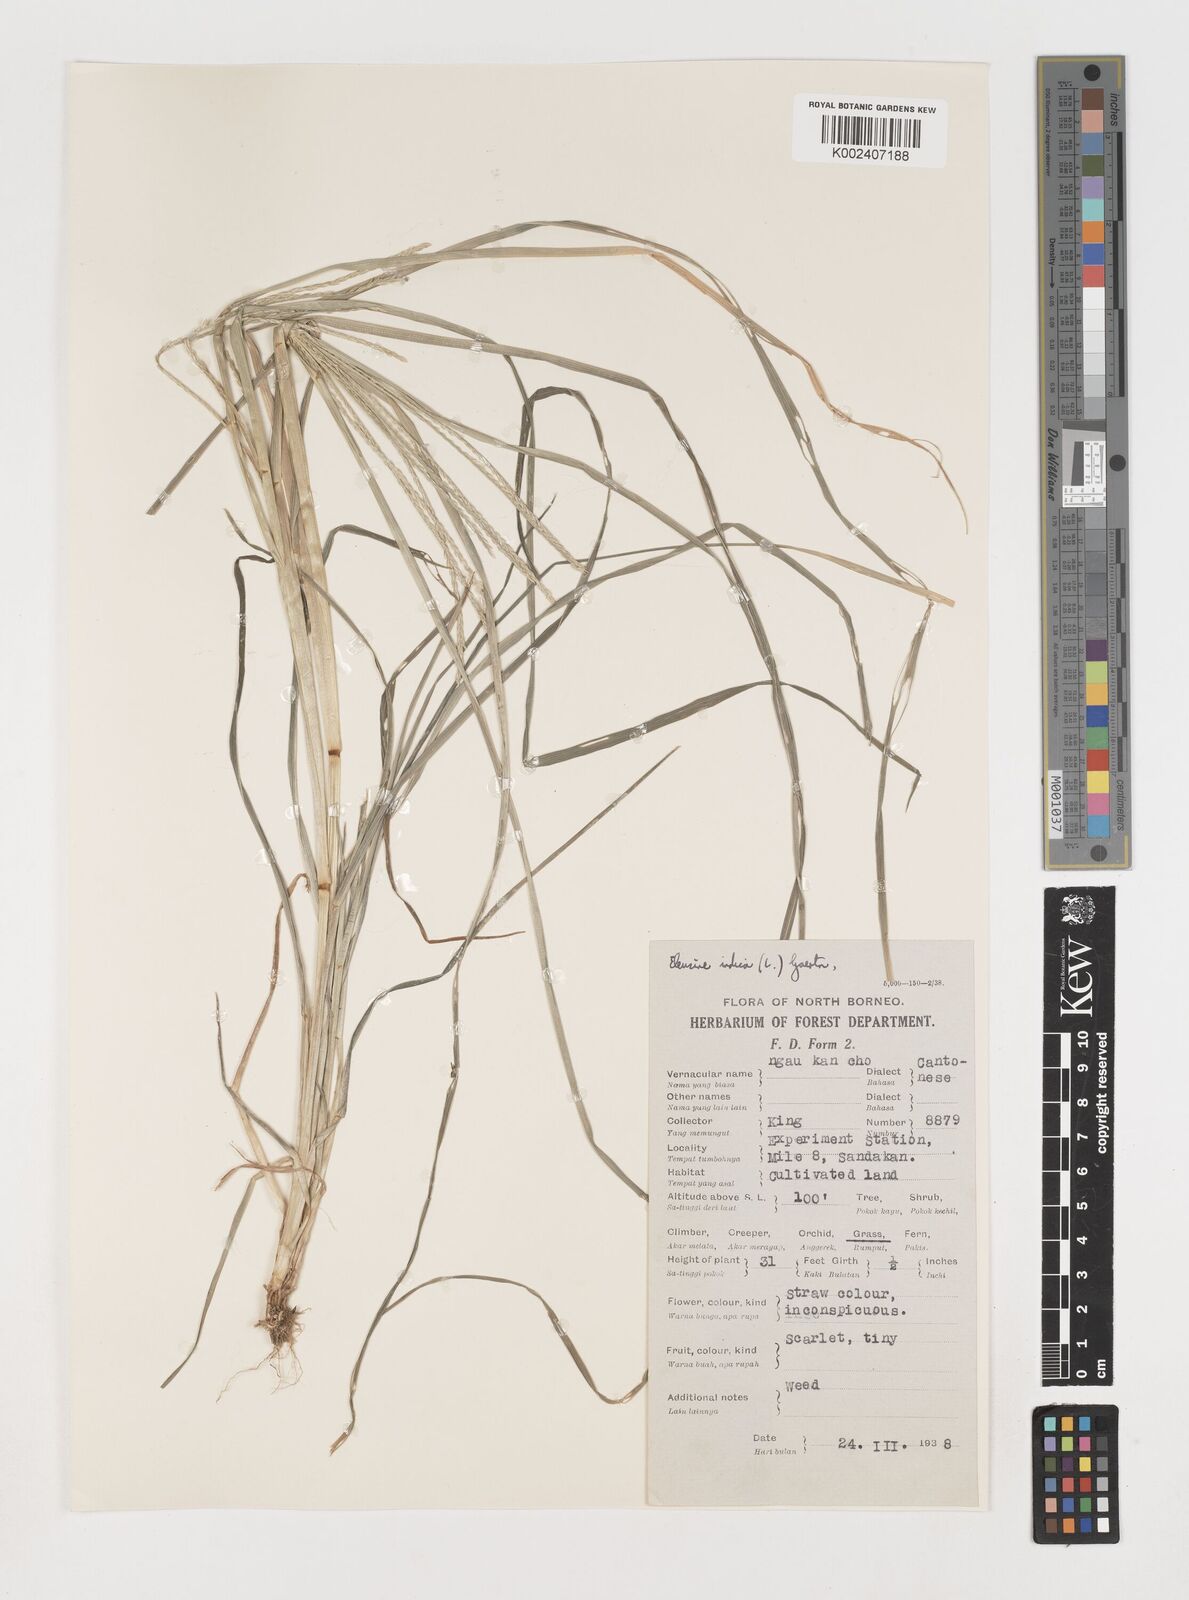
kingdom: Plantae
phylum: Tracheophyta
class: Liliopsida
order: Poales
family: Poaceae
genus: Eleusine
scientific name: Eleusine indica
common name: Yard-grass
